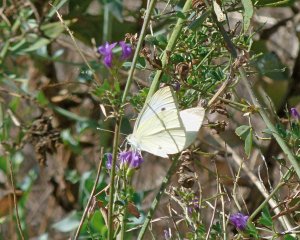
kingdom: Animalia
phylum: Arthropoda
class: Insecta
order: Lepidoptera
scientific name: Lepidoptera
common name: Butterflies
